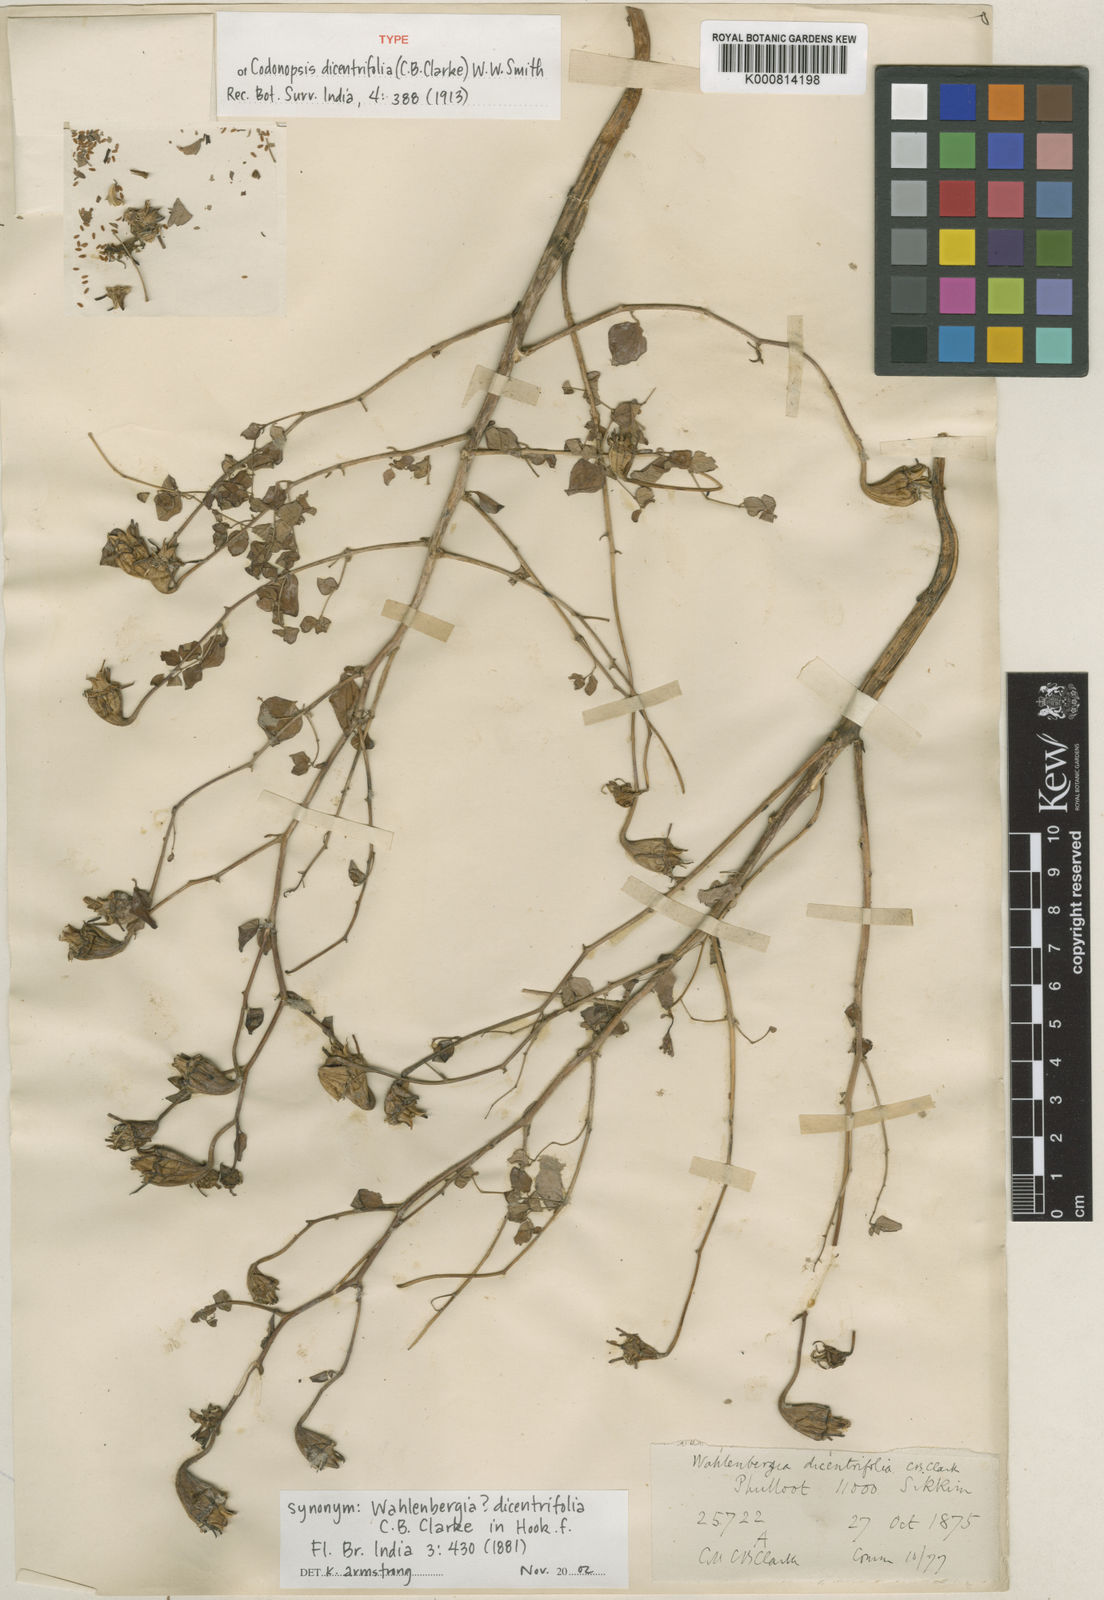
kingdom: Plantae
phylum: Tracheophyta
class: Magnoliopsida
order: Asterales
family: Campanulaceae
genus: Himalacodon
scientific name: Himalacodon dicentrifolius
